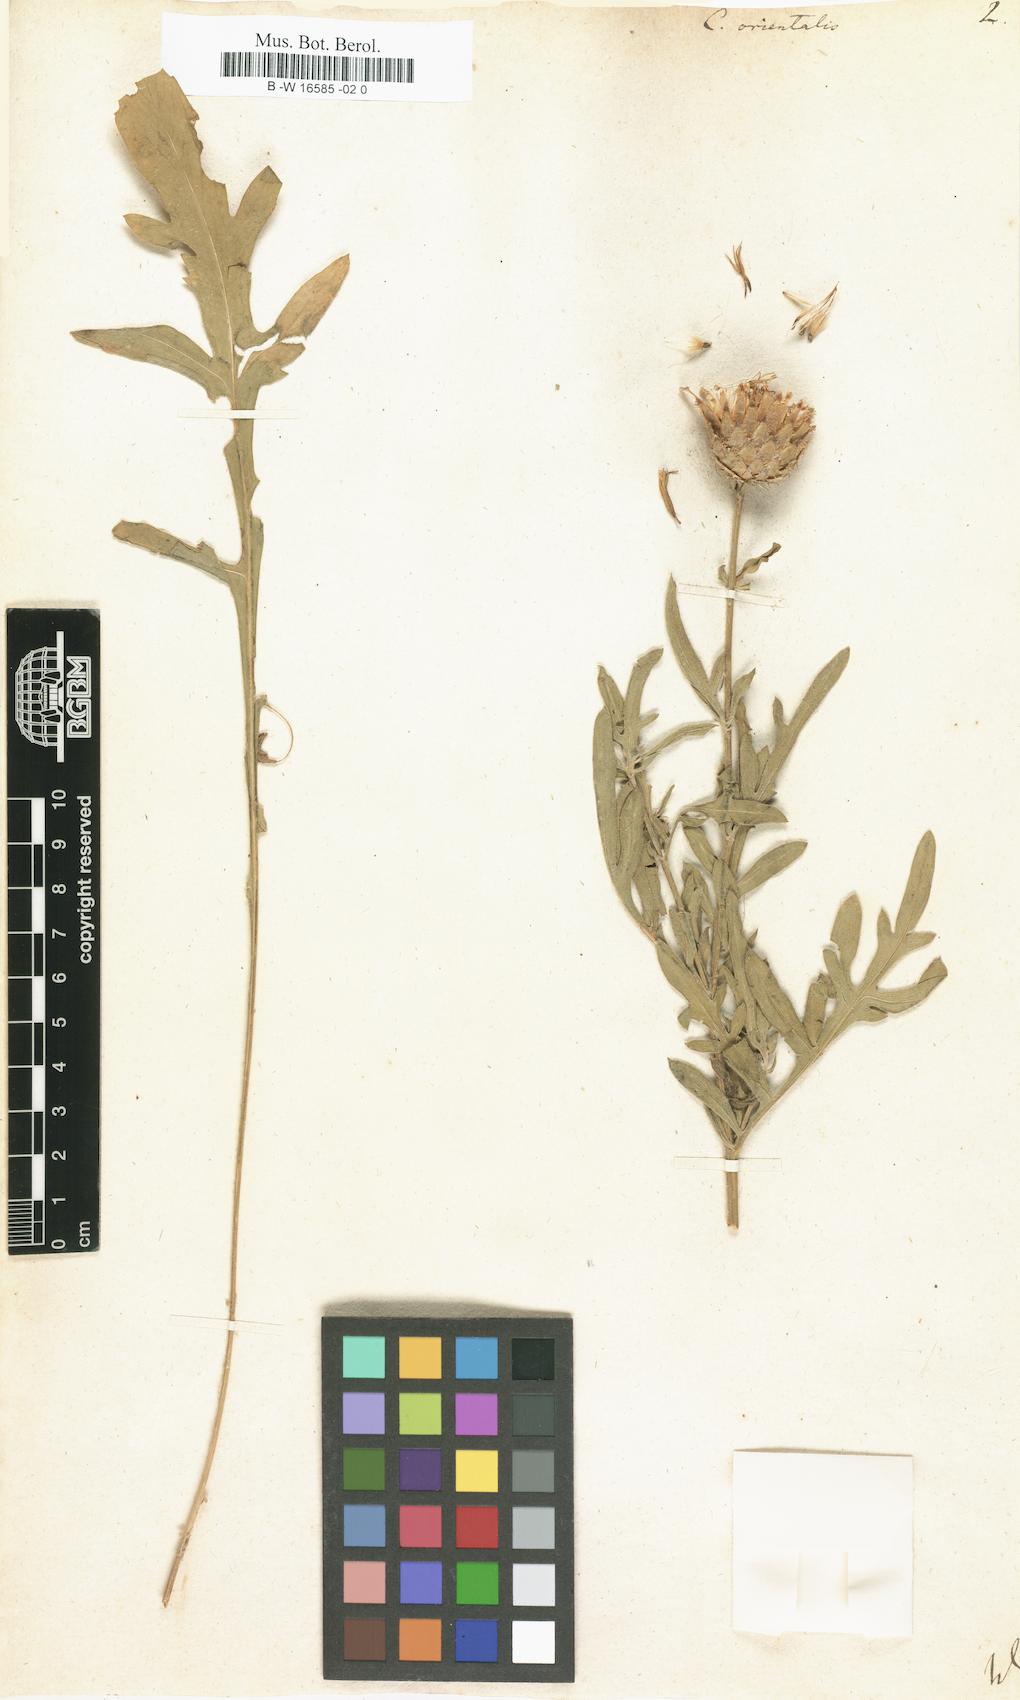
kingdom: Plantae
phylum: Tracheophyta
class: Magnoliopsida
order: Asterales
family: Asteraceae
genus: Centaurea
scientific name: Centaurea orientalis
